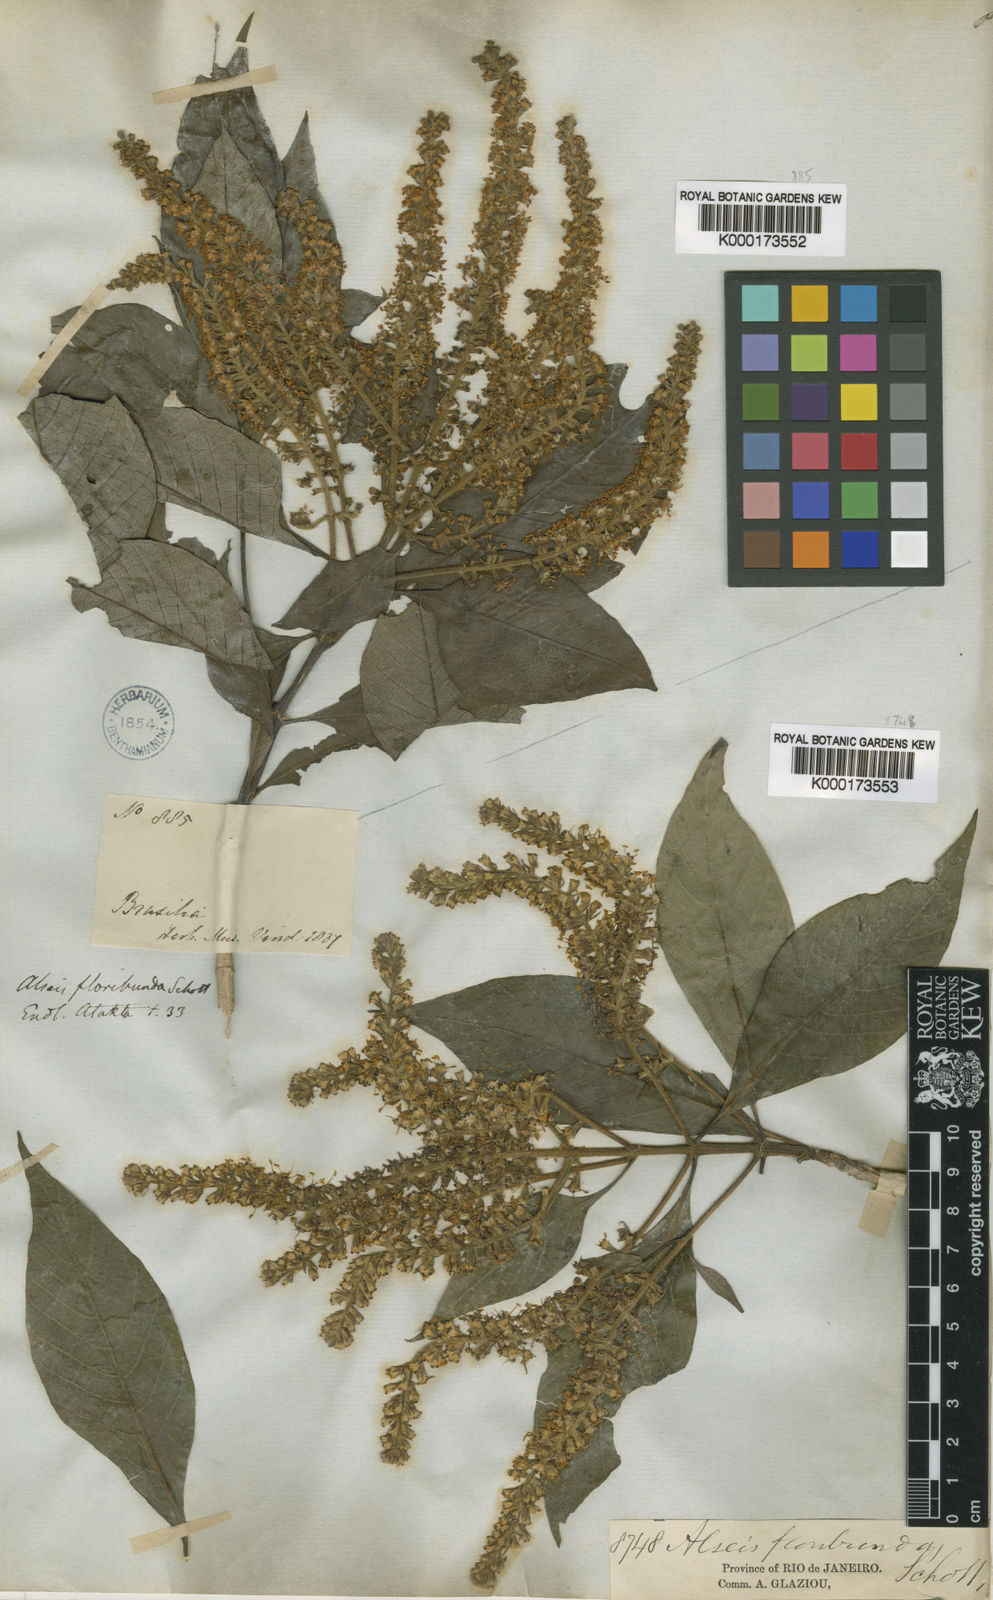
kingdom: Plantae
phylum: Tracheophyta
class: Magnoliopsida
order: Gentianales
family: Rubiaceae
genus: Alseis
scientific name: Alseis floribunda
